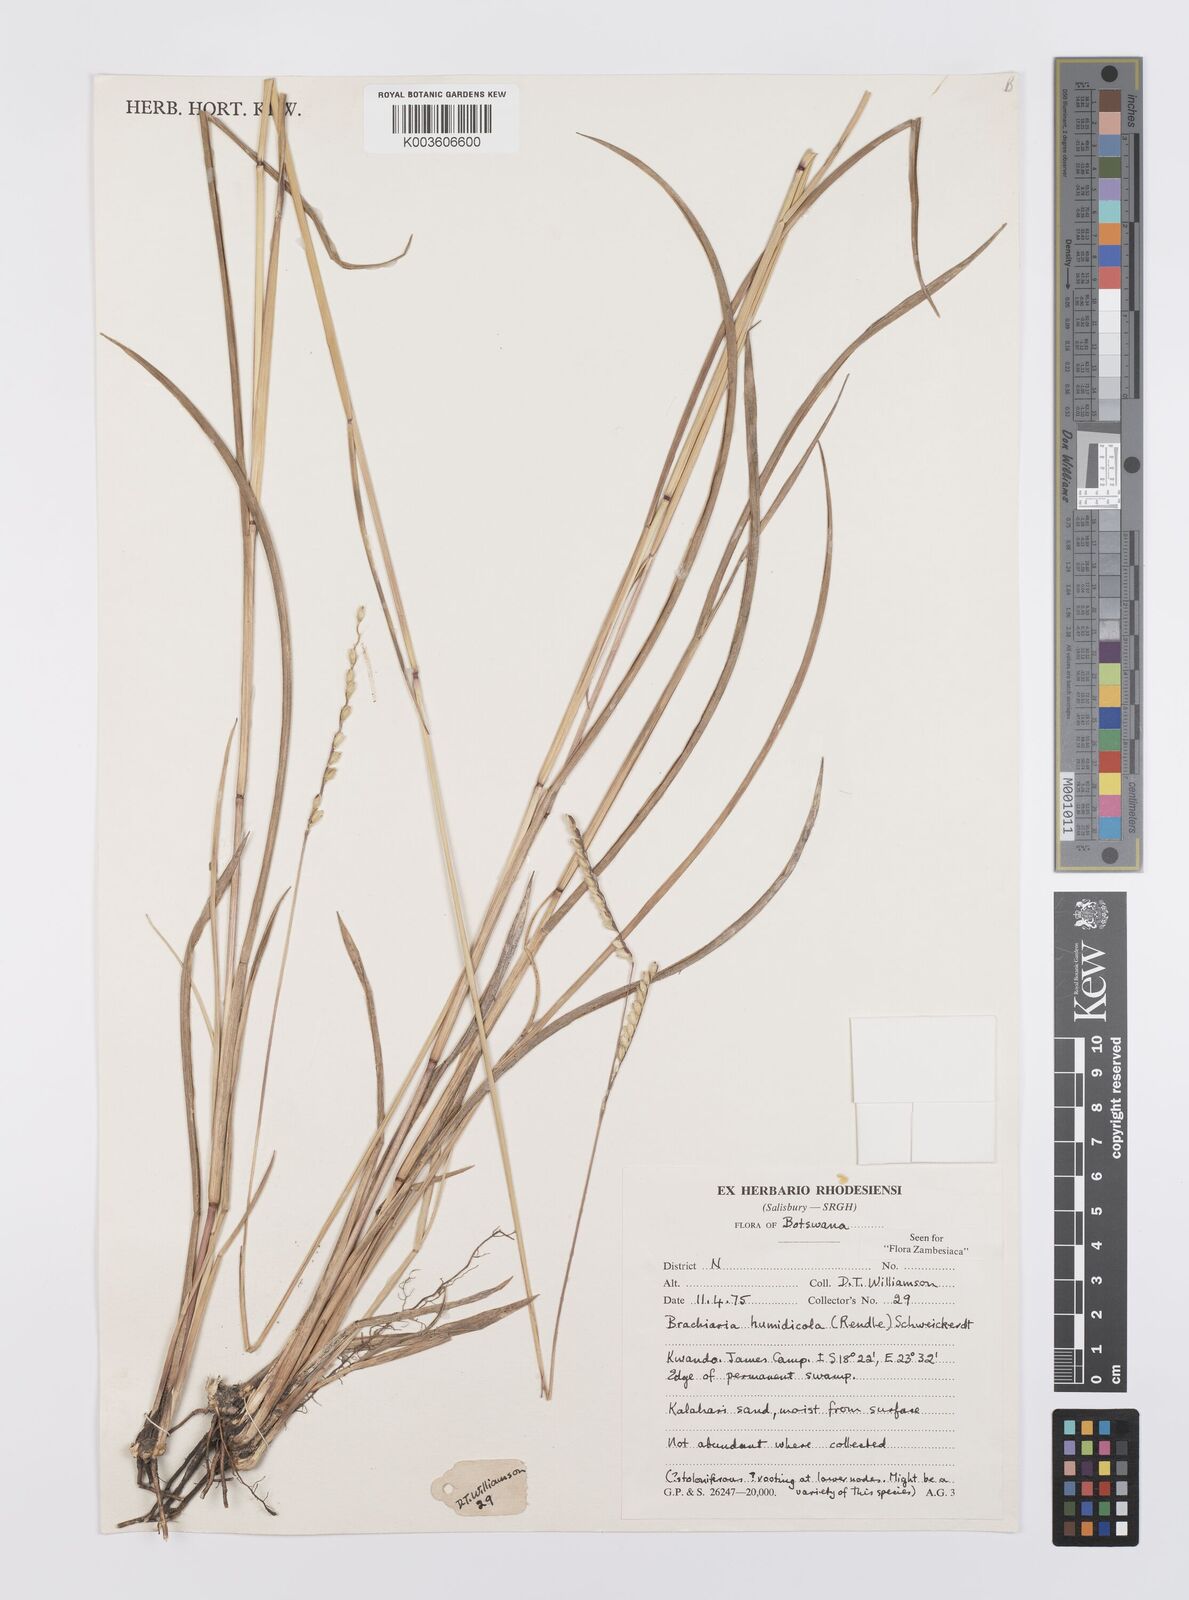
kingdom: Plantae
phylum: Tracheophyta
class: Liliopsida
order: Poales
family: Poaceae
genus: Urochloa
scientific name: Urochloa dictyoneura
